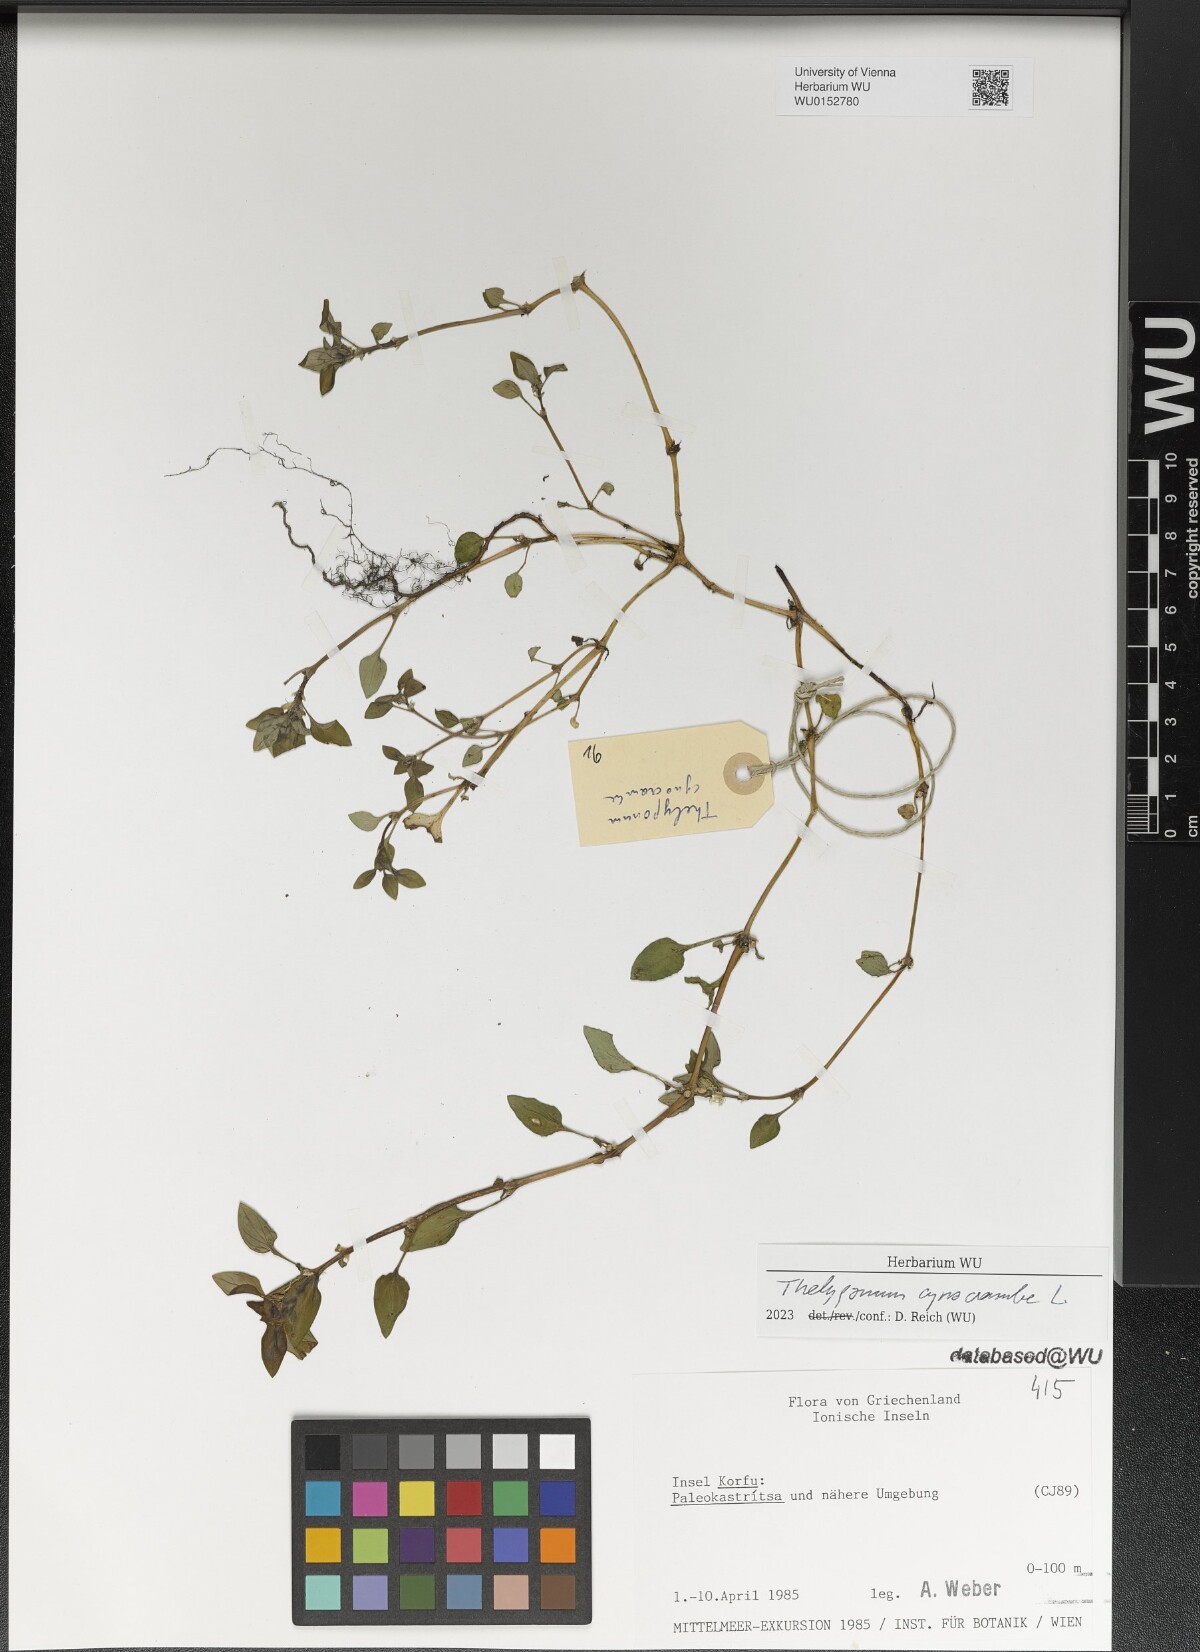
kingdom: Plantae
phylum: Tracheophyta
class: Magnoliopsida
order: Gentianales
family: Rubiaceae
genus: Theligonum
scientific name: Theligonum cynocrambe
